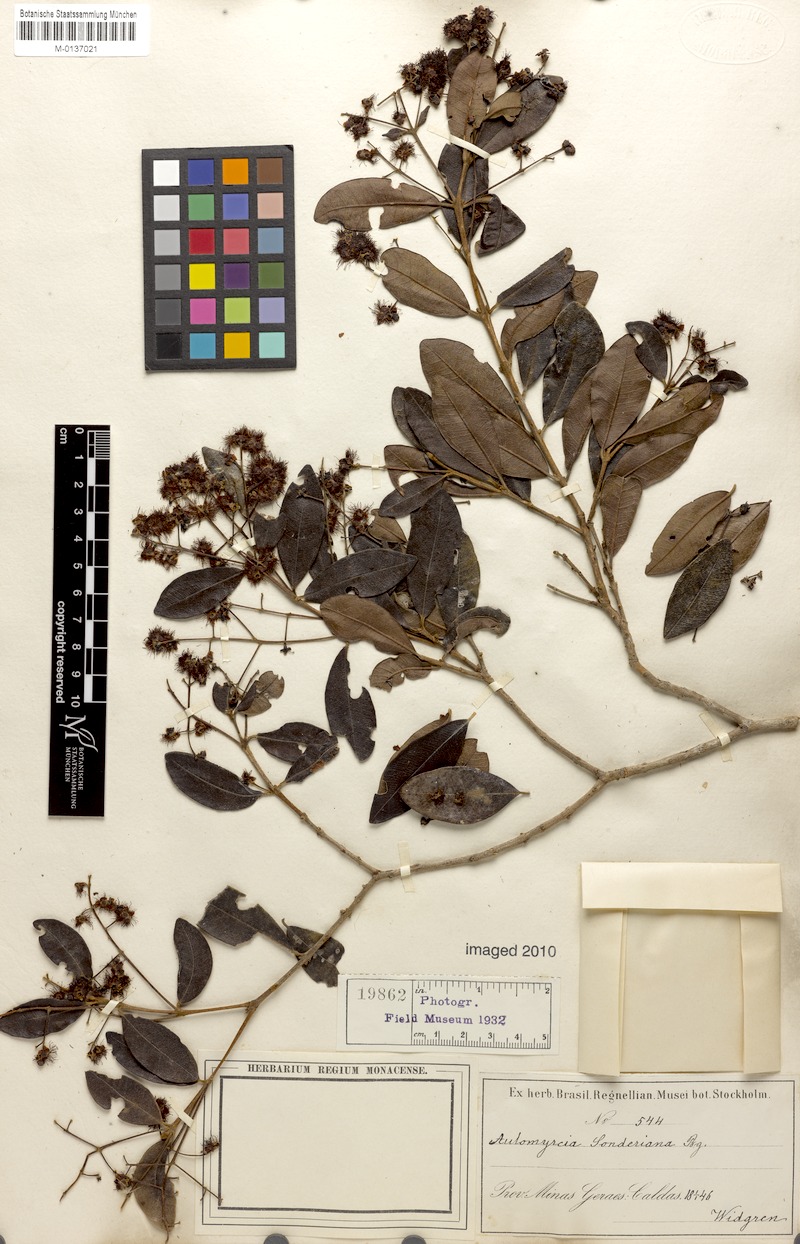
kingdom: Plantae
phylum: Tracheophyta
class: Magnoliopsida
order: Myrtales
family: Myrtaceae
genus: Myrcia
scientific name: Myrcia venulosa
